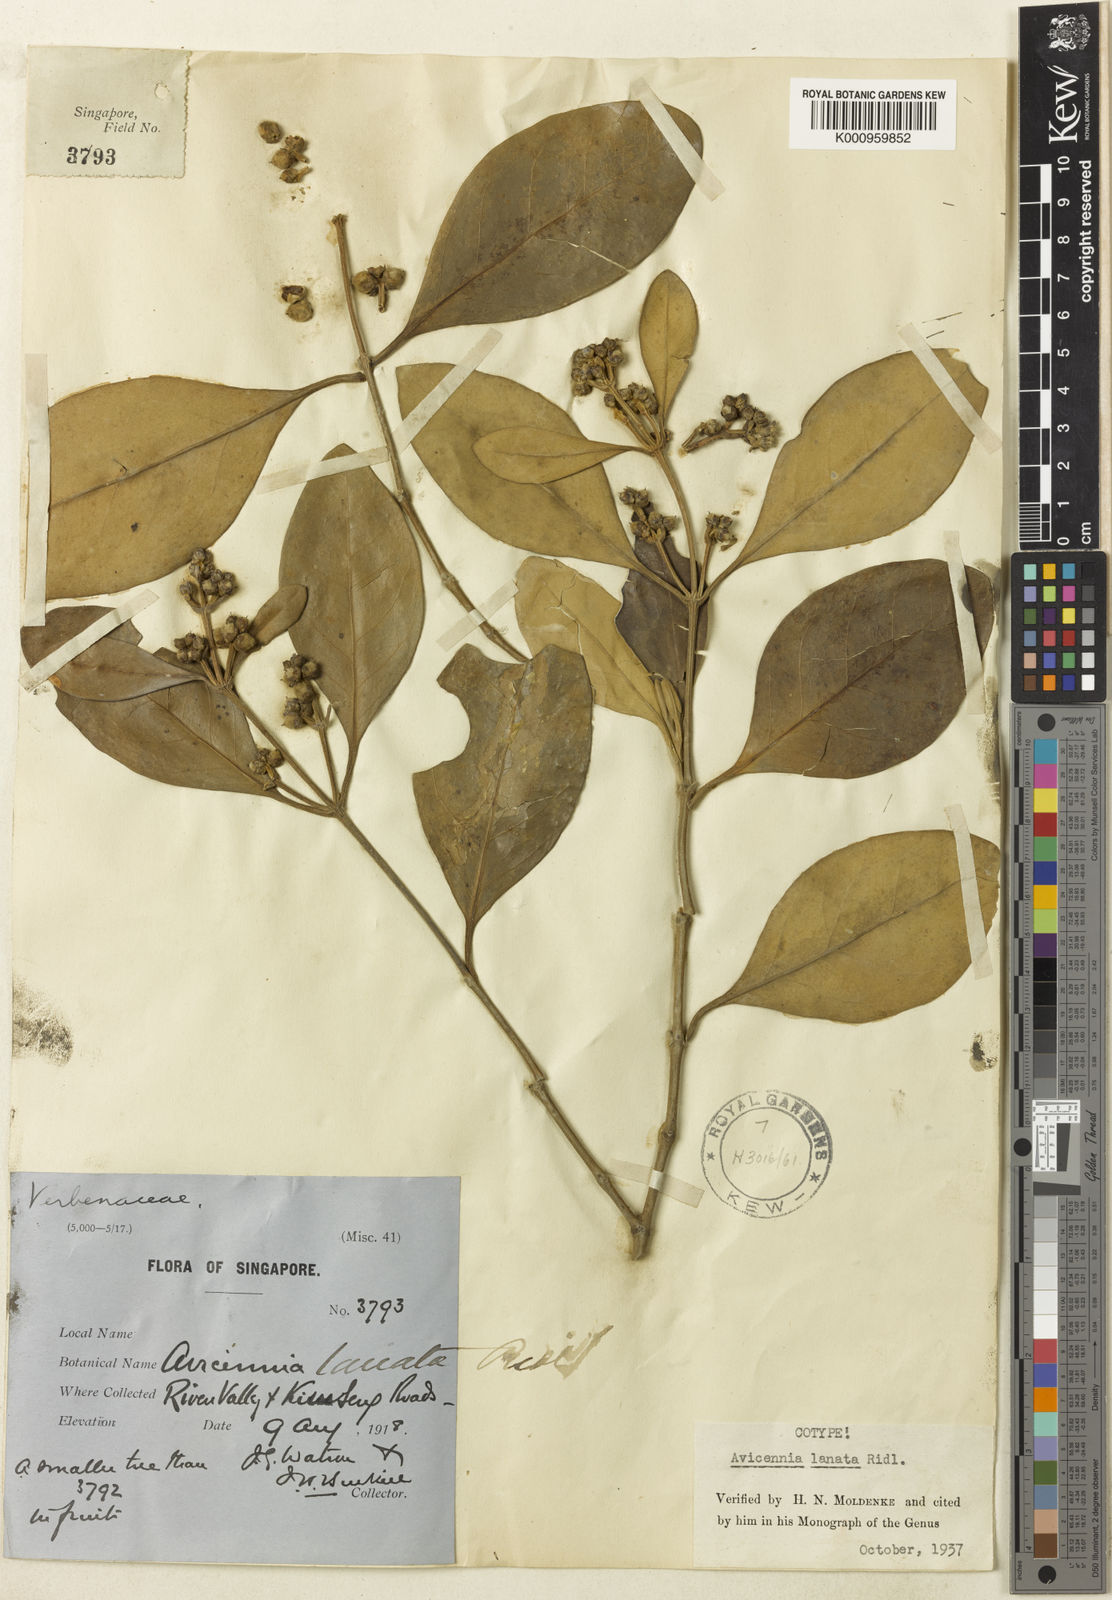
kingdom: Plantae
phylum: Tracheophyta
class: Magnoliopsida
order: Lamiales
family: Acanthaceae
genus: Avicennia
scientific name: Avicennia marina
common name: Gray mangrove
